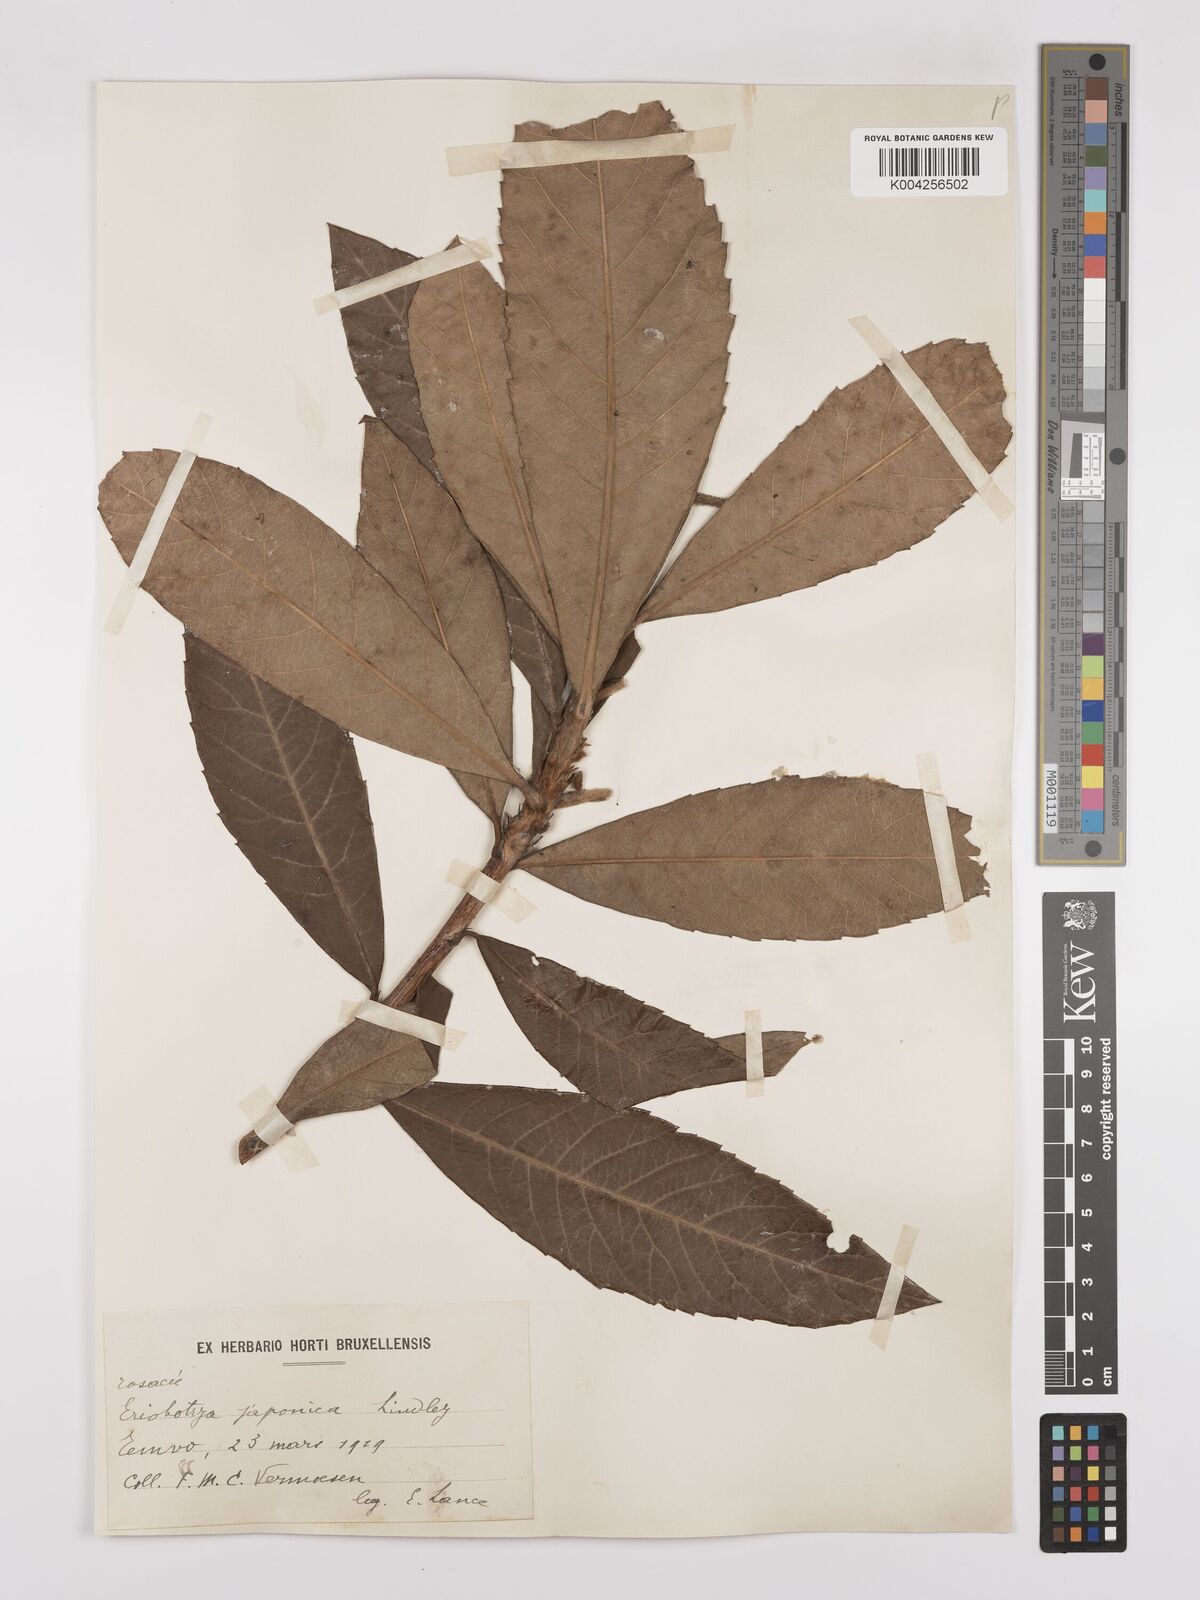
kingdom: Plantae
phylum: Tracheophyta
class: Magnoliopsida
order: Rosales
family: Rosaceae
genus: Rhaphiolepis
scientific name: Rhaphiolepis bibas
